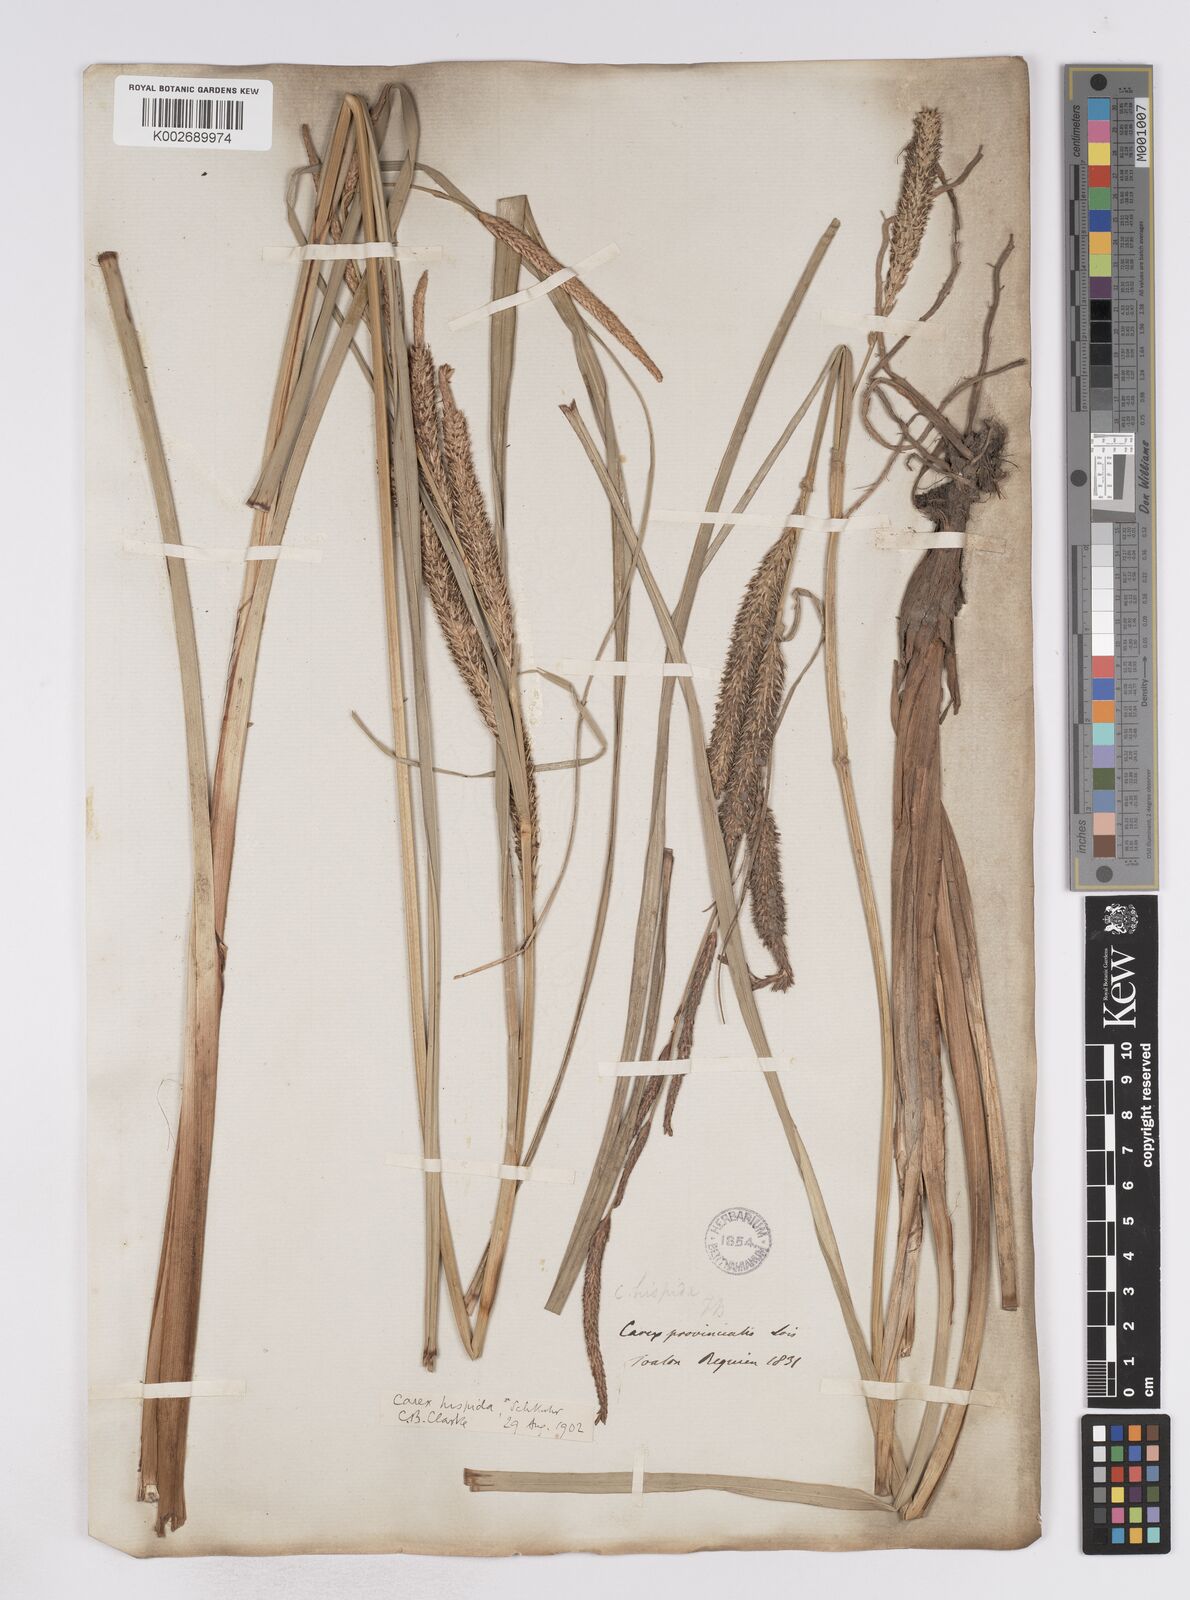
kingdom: Plantae
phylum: Tracheophyta
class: Liliopsida
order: Poales
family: Cyperaceae
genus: Carex
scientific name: Carex hispida
